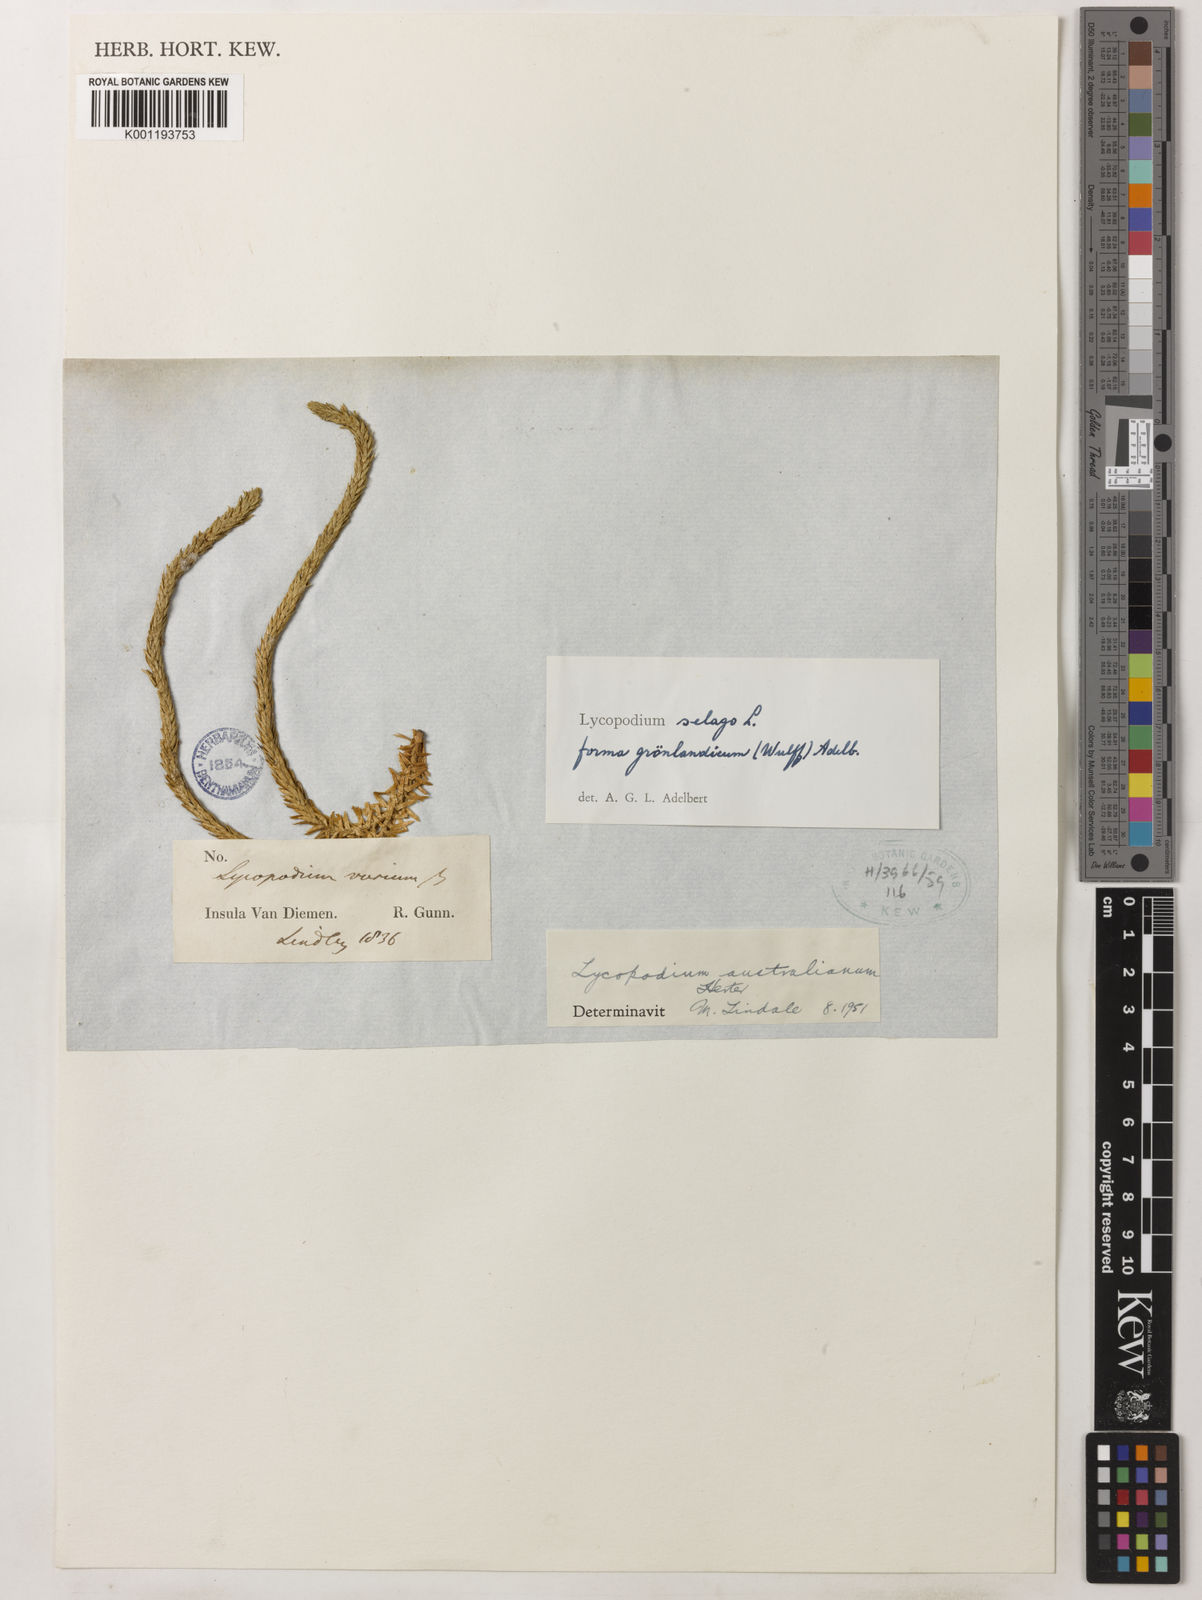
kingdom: Plantae
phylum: Tracheophyta
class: Lycopodiopsida
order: Lycopodiales
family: Lycopodiaceae
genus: Huperzia
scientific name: Huperzia australiana
